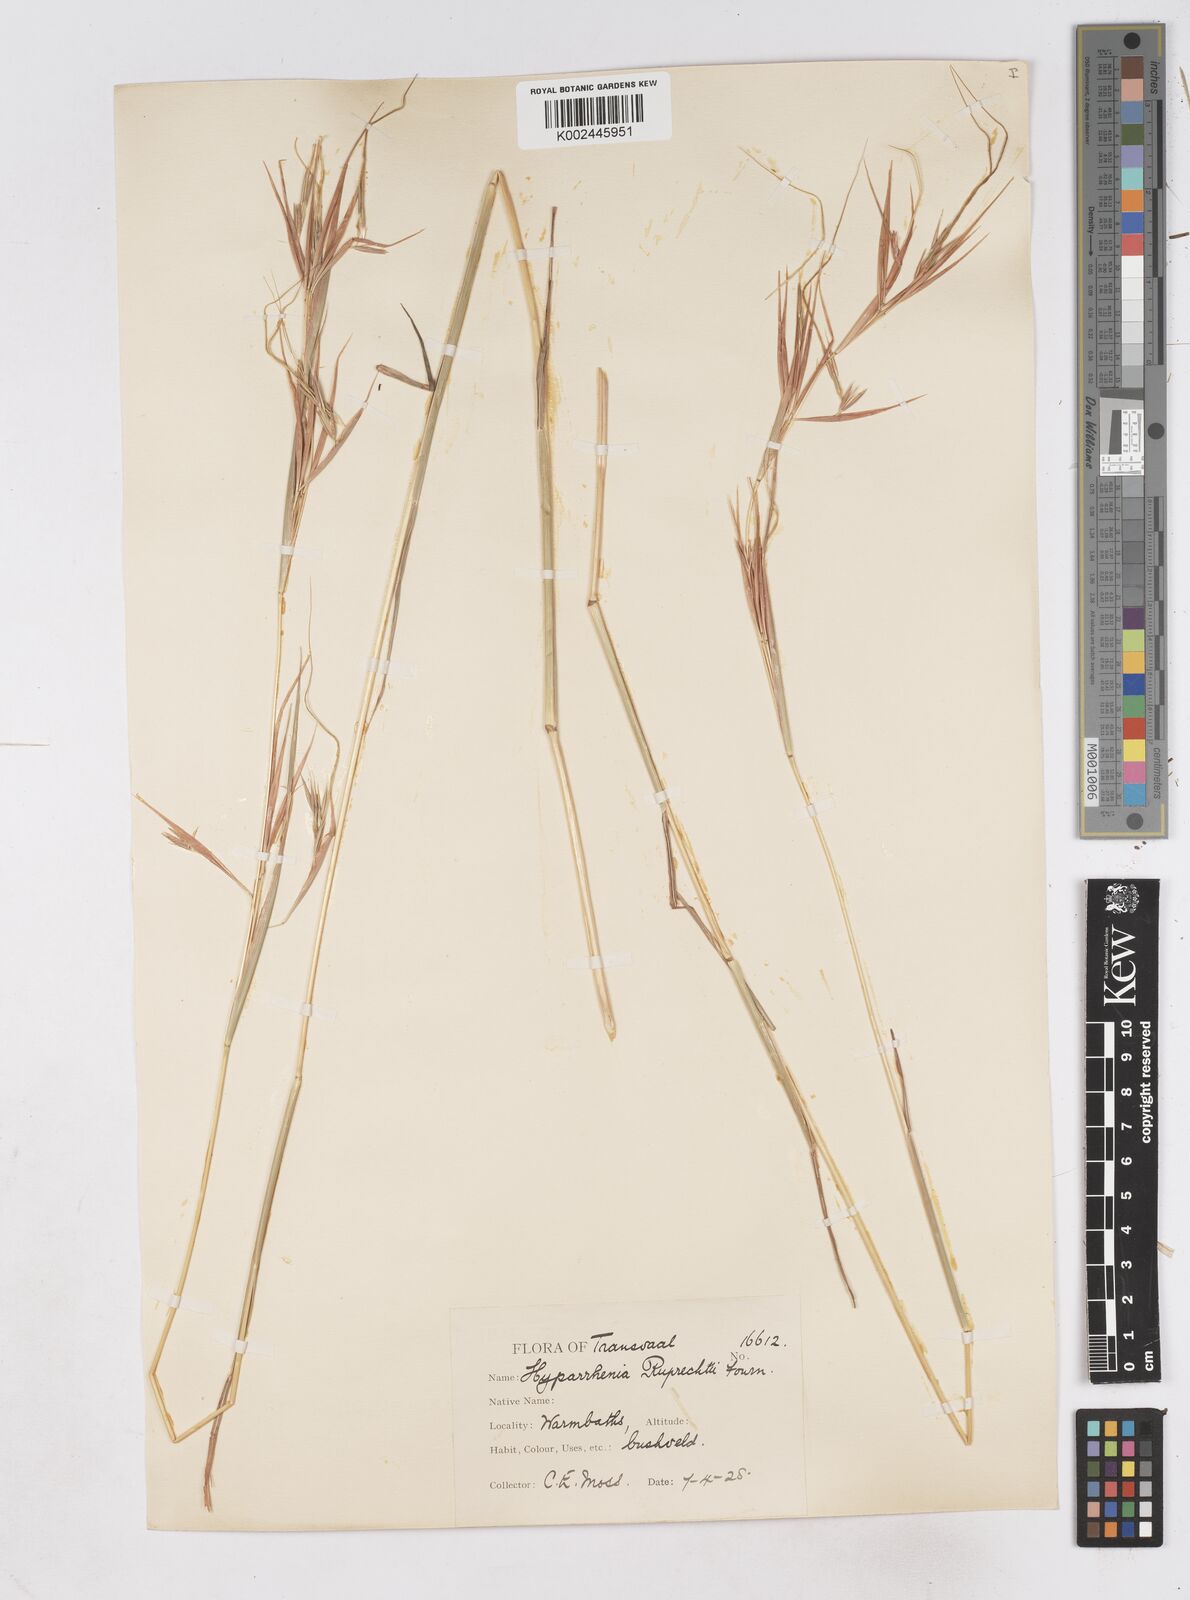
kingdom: Plantae
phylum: Tracheophyta
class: Liliopsida
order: Poales
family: Poaceae
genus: Hyperthelia
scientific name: Hyperthelia dissoluta
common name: Yellow thatching grass
